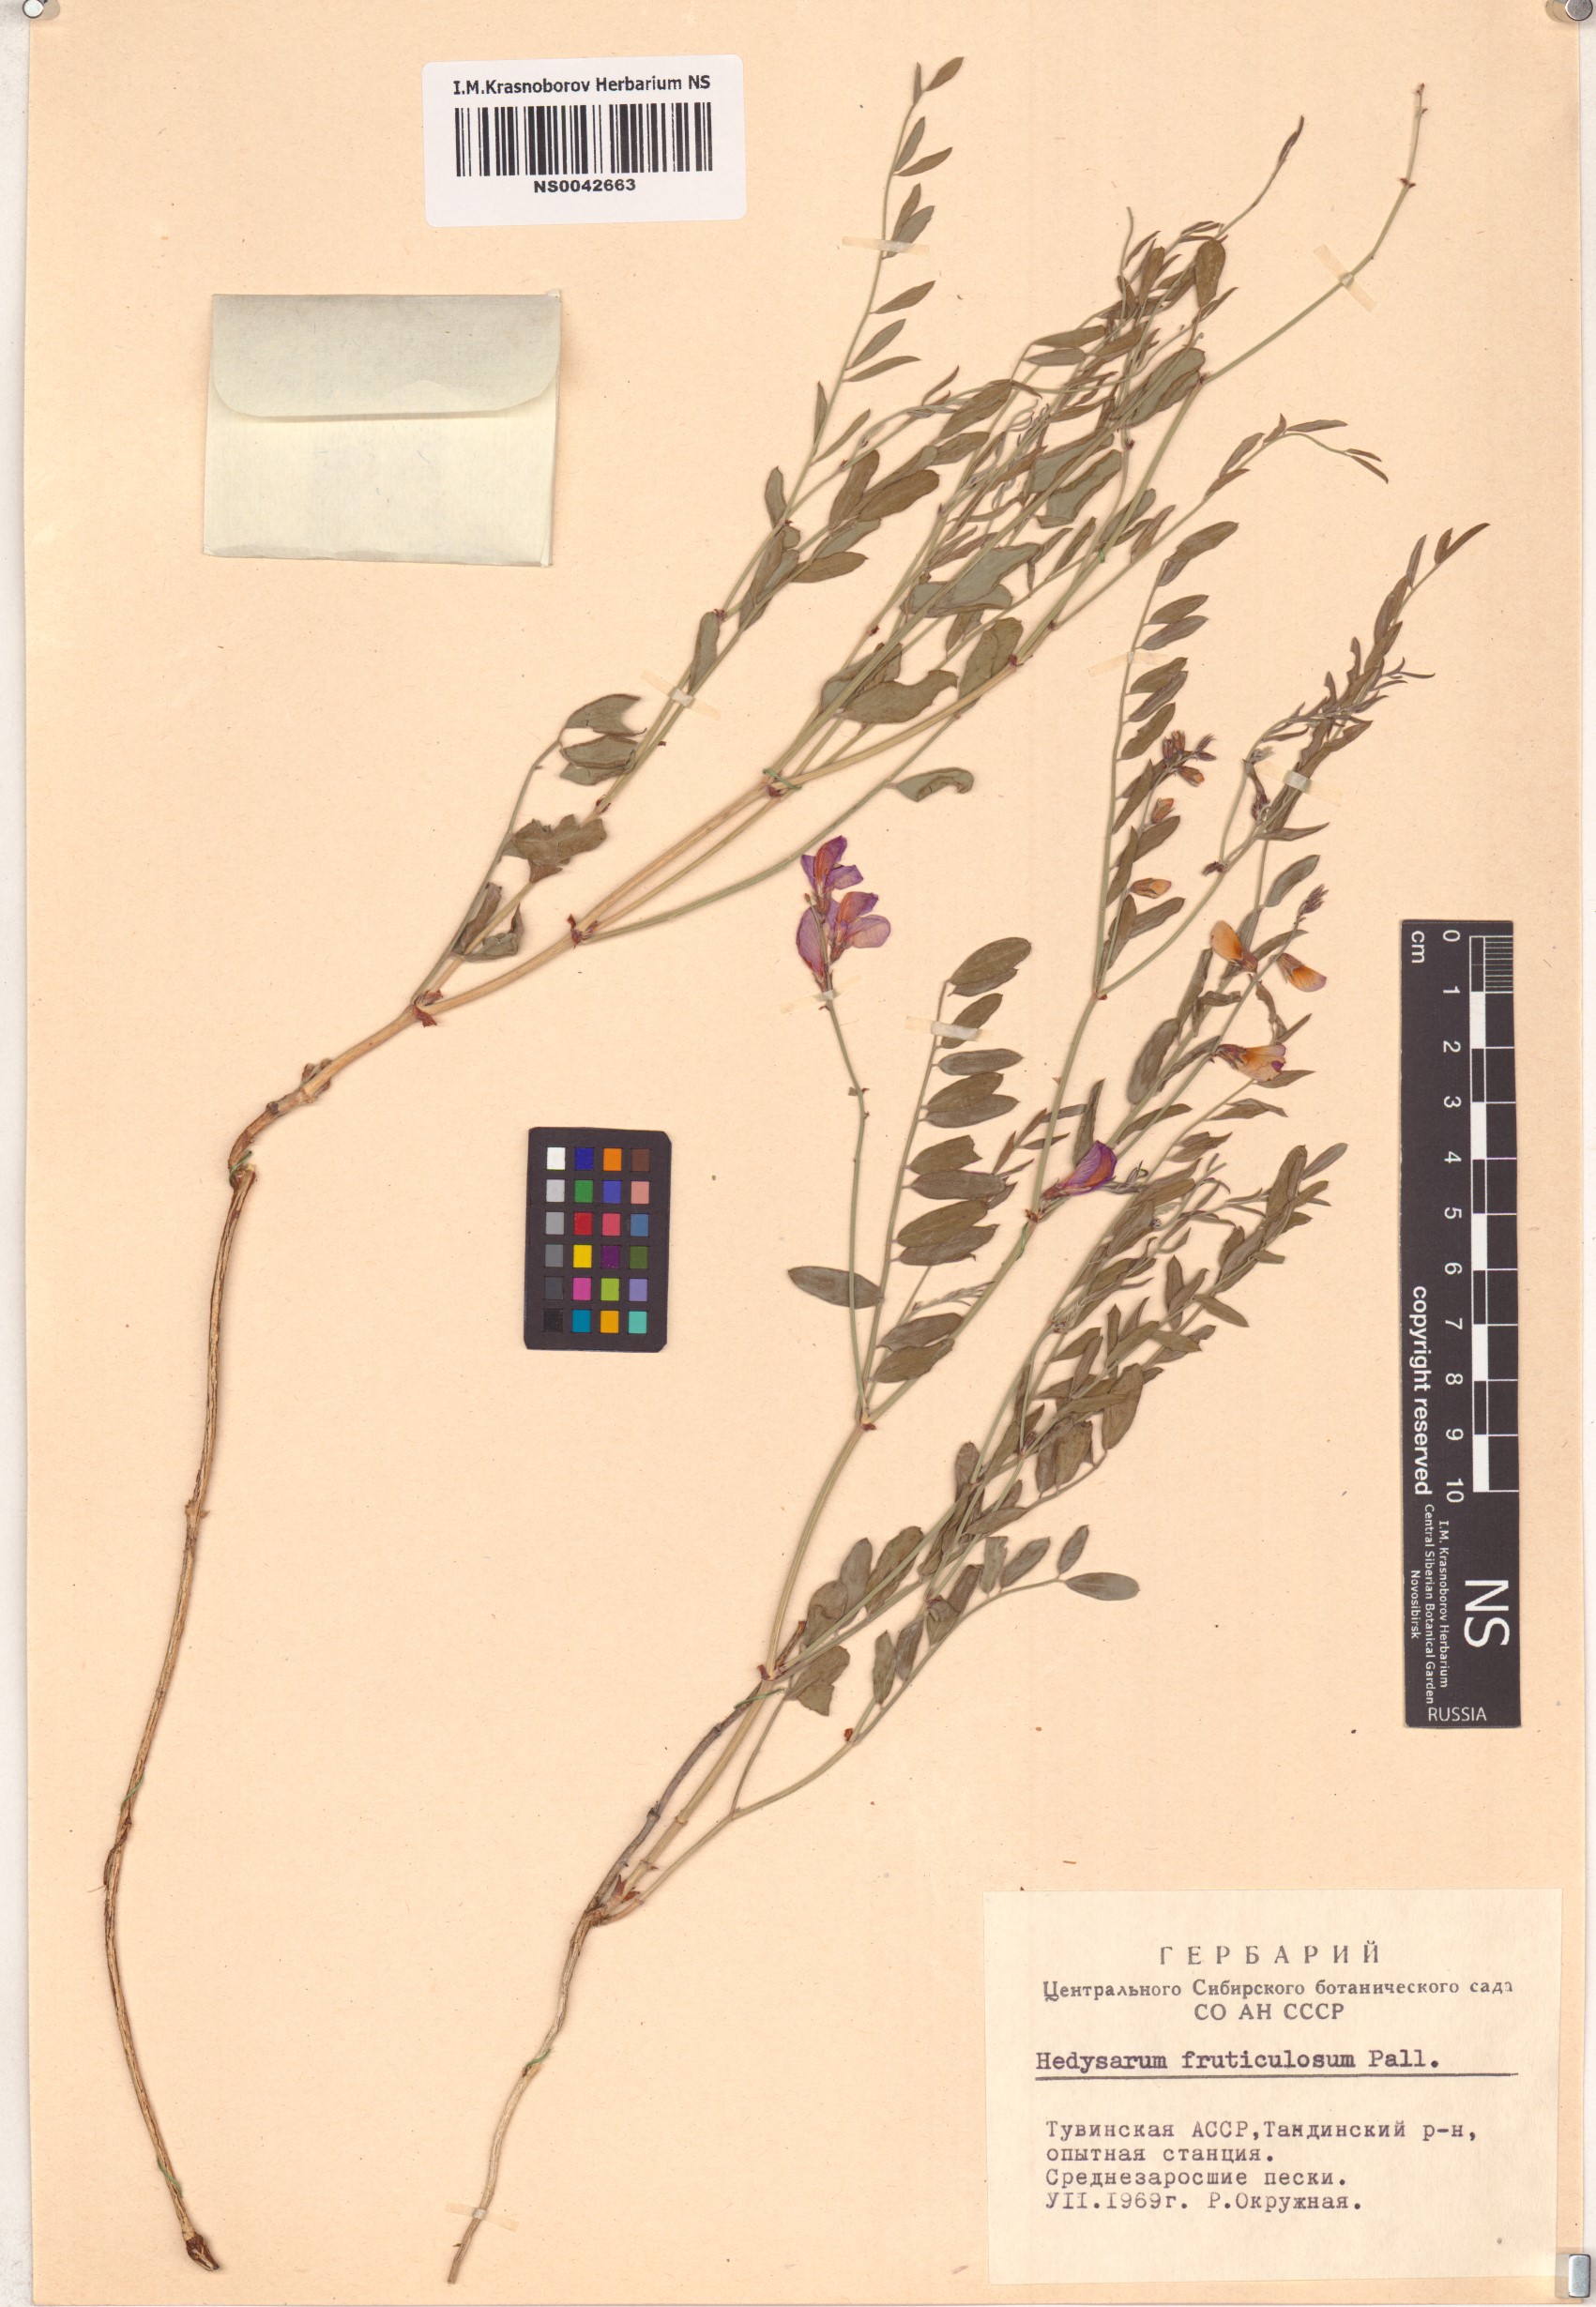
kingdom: Plantae
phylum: Tracheophyta
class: Magnoliopsida
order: Fabales
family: Fabaceae
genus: Corethrodendron
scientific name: Corethrodendron fruticosum
